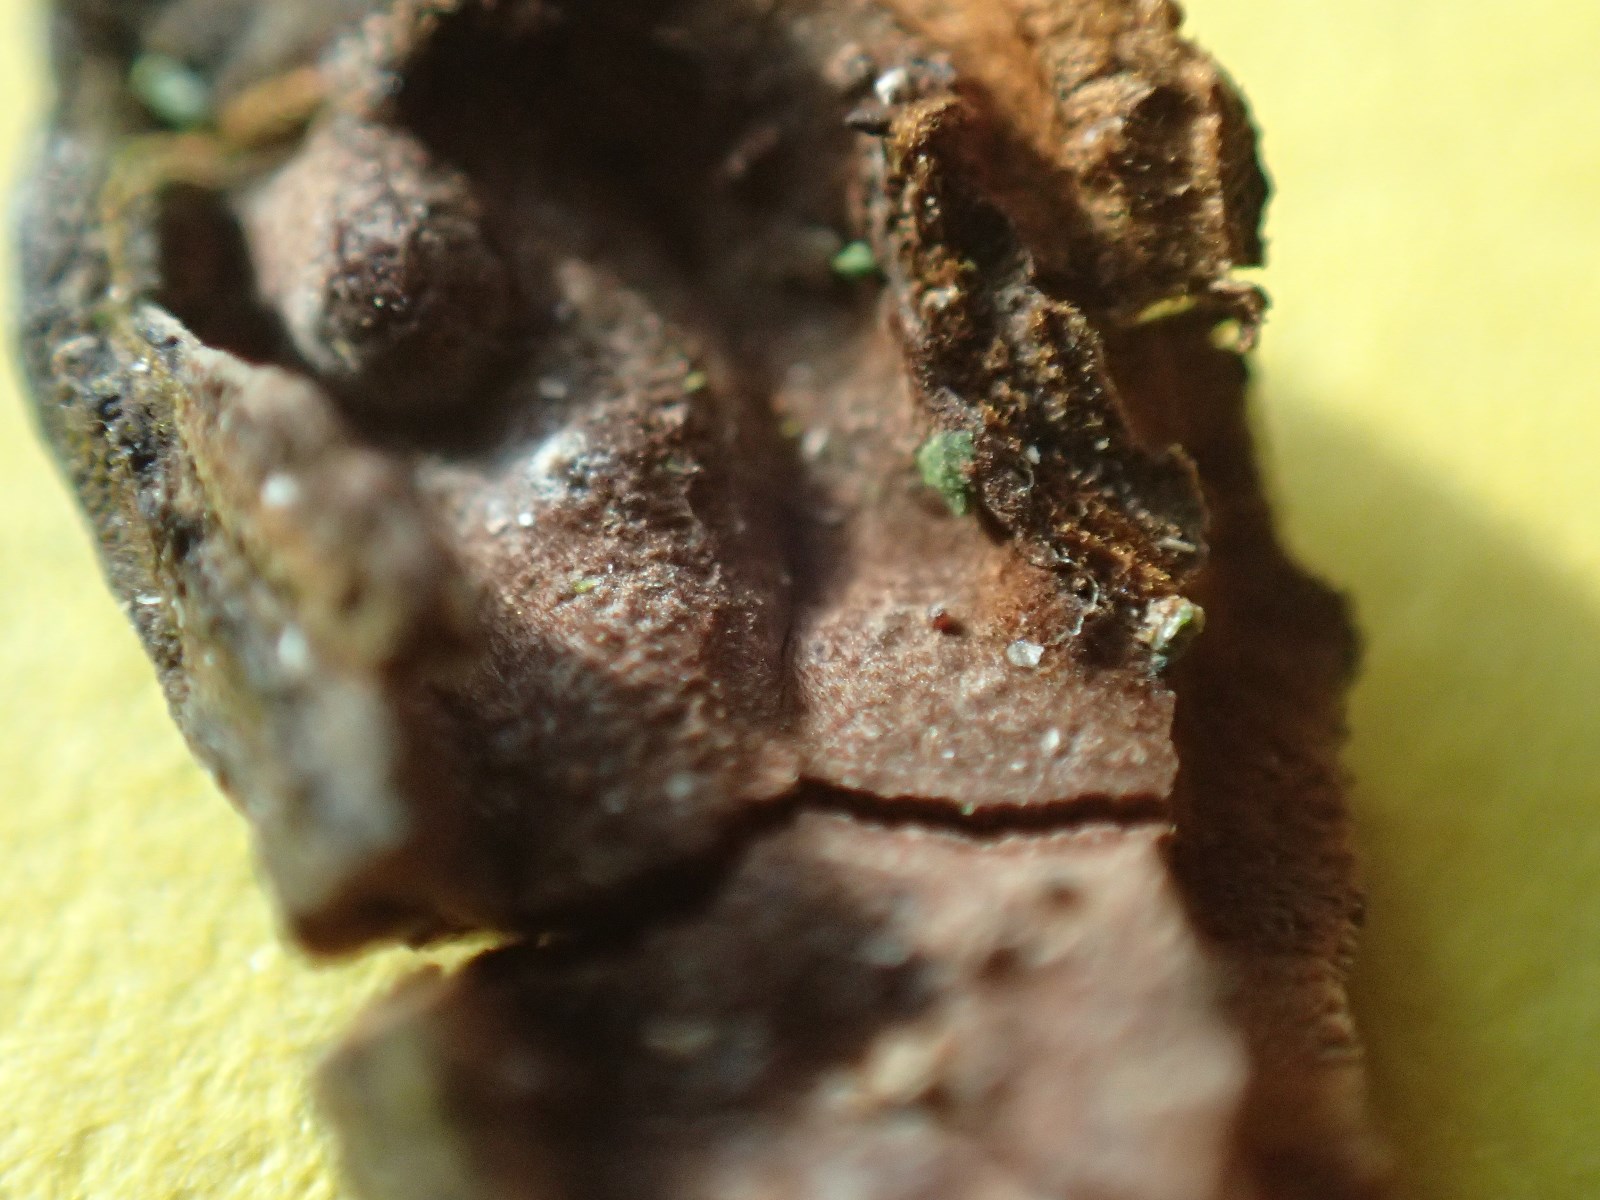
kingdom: Fungi
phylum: Basidiomycota
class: Agaricomycetes
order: Hymenochaetales
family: Hymenochaetaceae
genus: Hymenochaete
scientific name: Hymenochaete rubiginosa
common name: stiv ruslædersvamp
